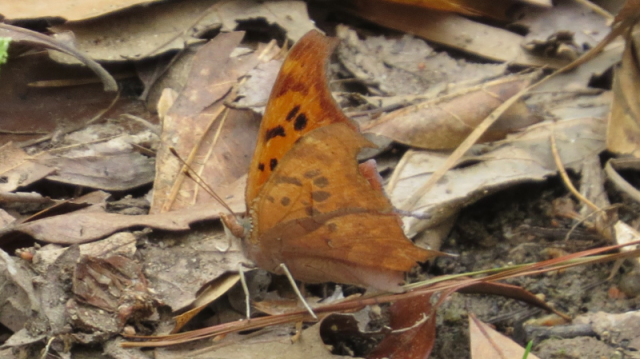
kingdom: Animalia
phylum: Arthropoda
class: Insecta
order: Lepidoptera
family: Nymphalidae
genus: Polygonia
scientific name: Polygonia interrogationis
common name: Question Mark
